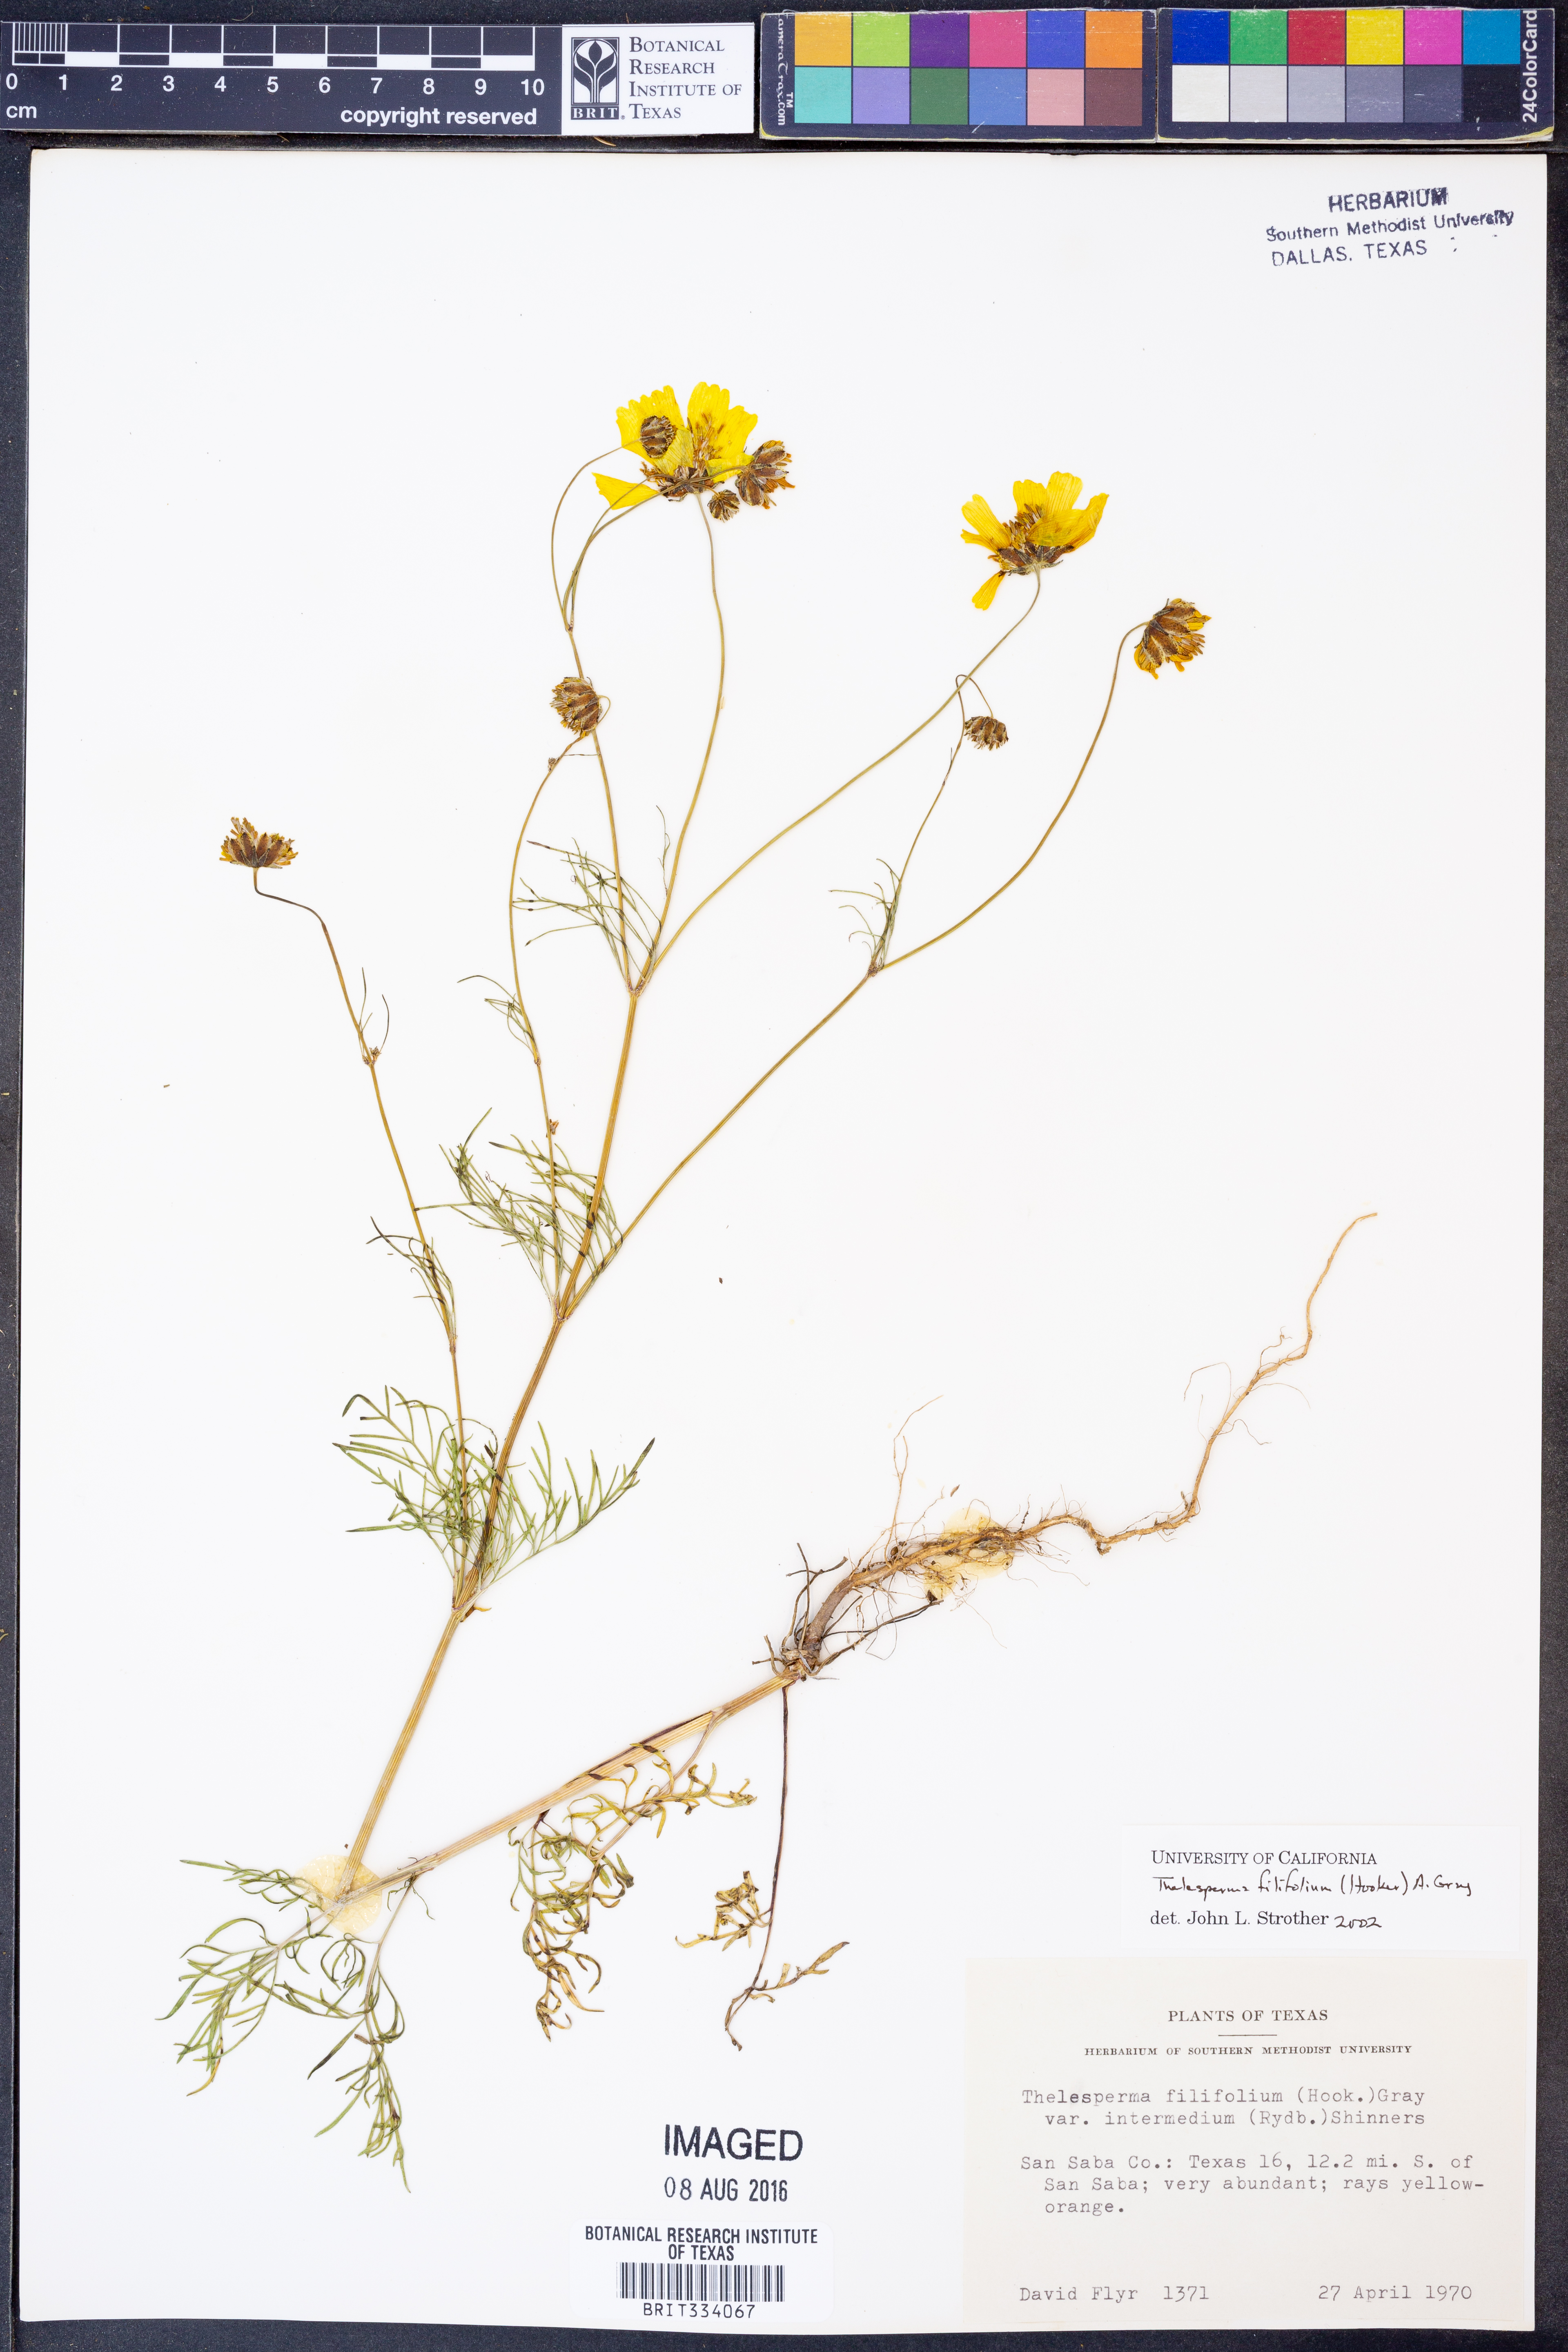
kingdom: Plantae
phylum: Tracheophyta
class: Magnoliopsida
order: Asterales
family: Asteraceae
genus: Thelesperma
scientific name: Thelesperma filifolium
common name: Stiff greenthread
